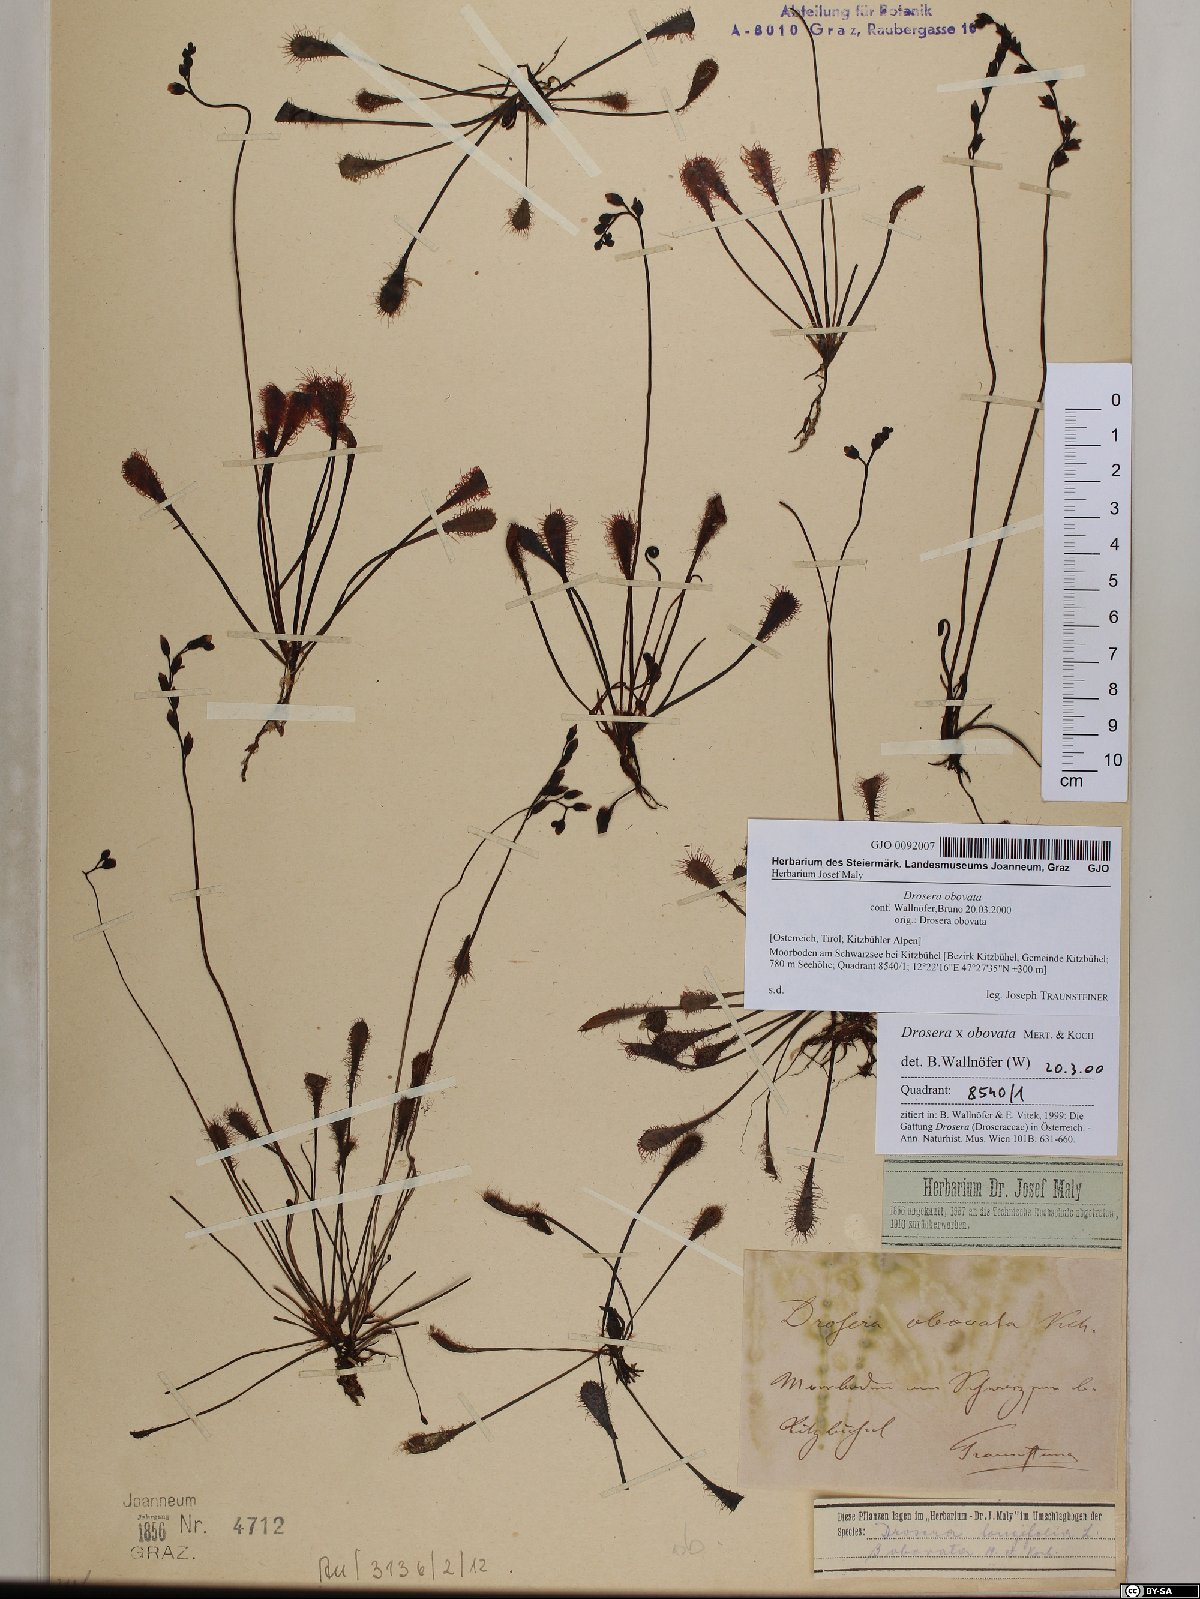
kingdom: Plantae
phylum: Tracheophyta
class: Magnoliopsida
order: Caryophyllales
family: Droseraceae
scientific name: Droseraceae
